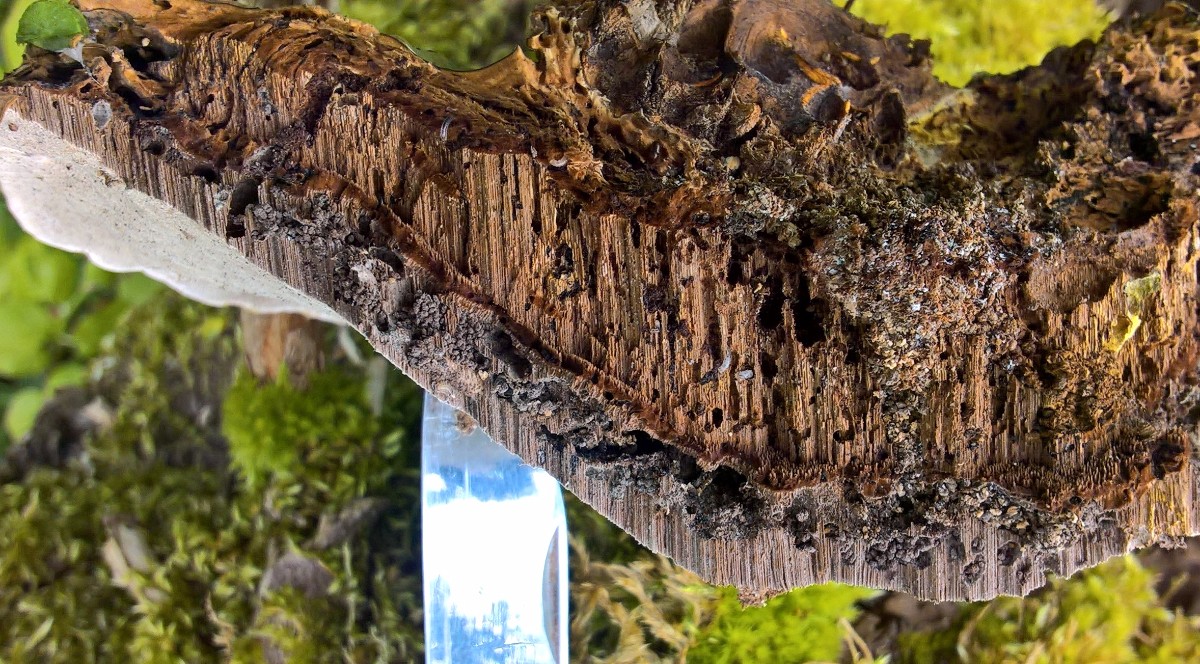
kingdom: Fungi
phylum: Basidiomycota
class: Agaricomycetes
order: Polyporales
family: Polyporaceae
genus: Ganoderma
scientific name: Ganoderma applanatum
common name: flad lakporesvamp
